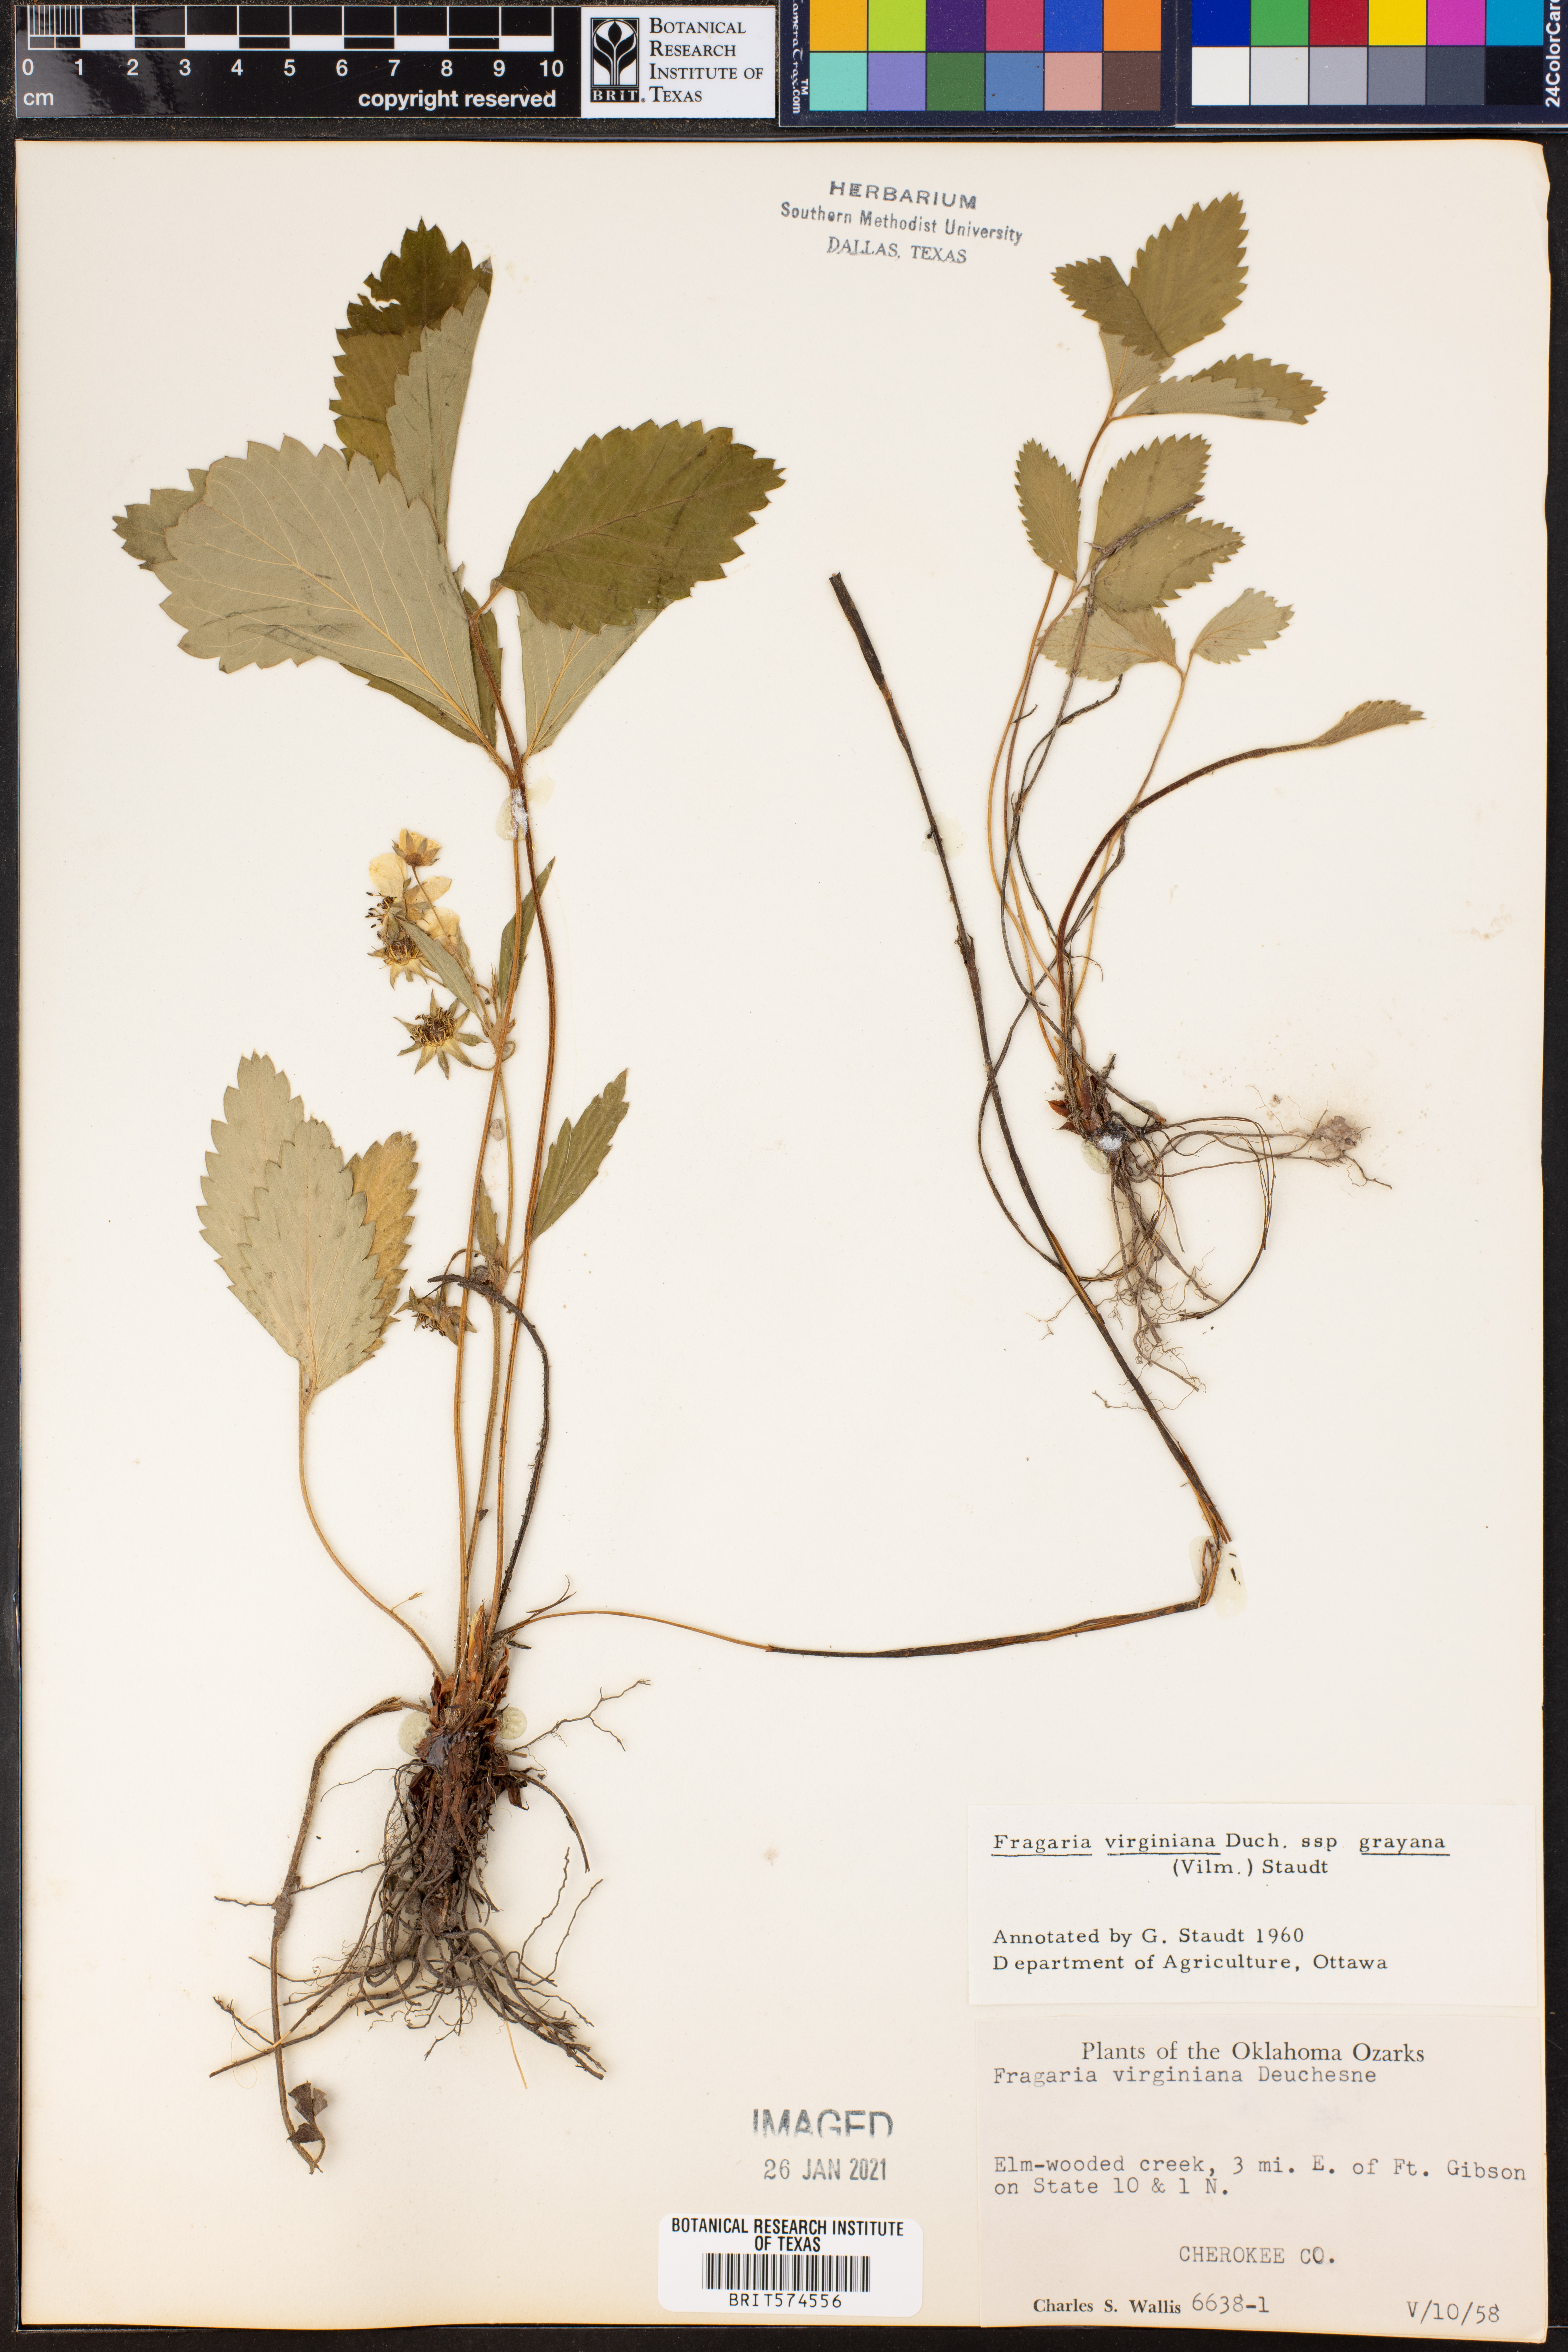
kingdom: Plantae
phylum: Tracheophyta
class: Magnoliopsida
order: Rosales
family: Rosaceae
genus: Fragaria
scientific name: Fragaria virginiana
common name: Thickleaved wild strawberry
